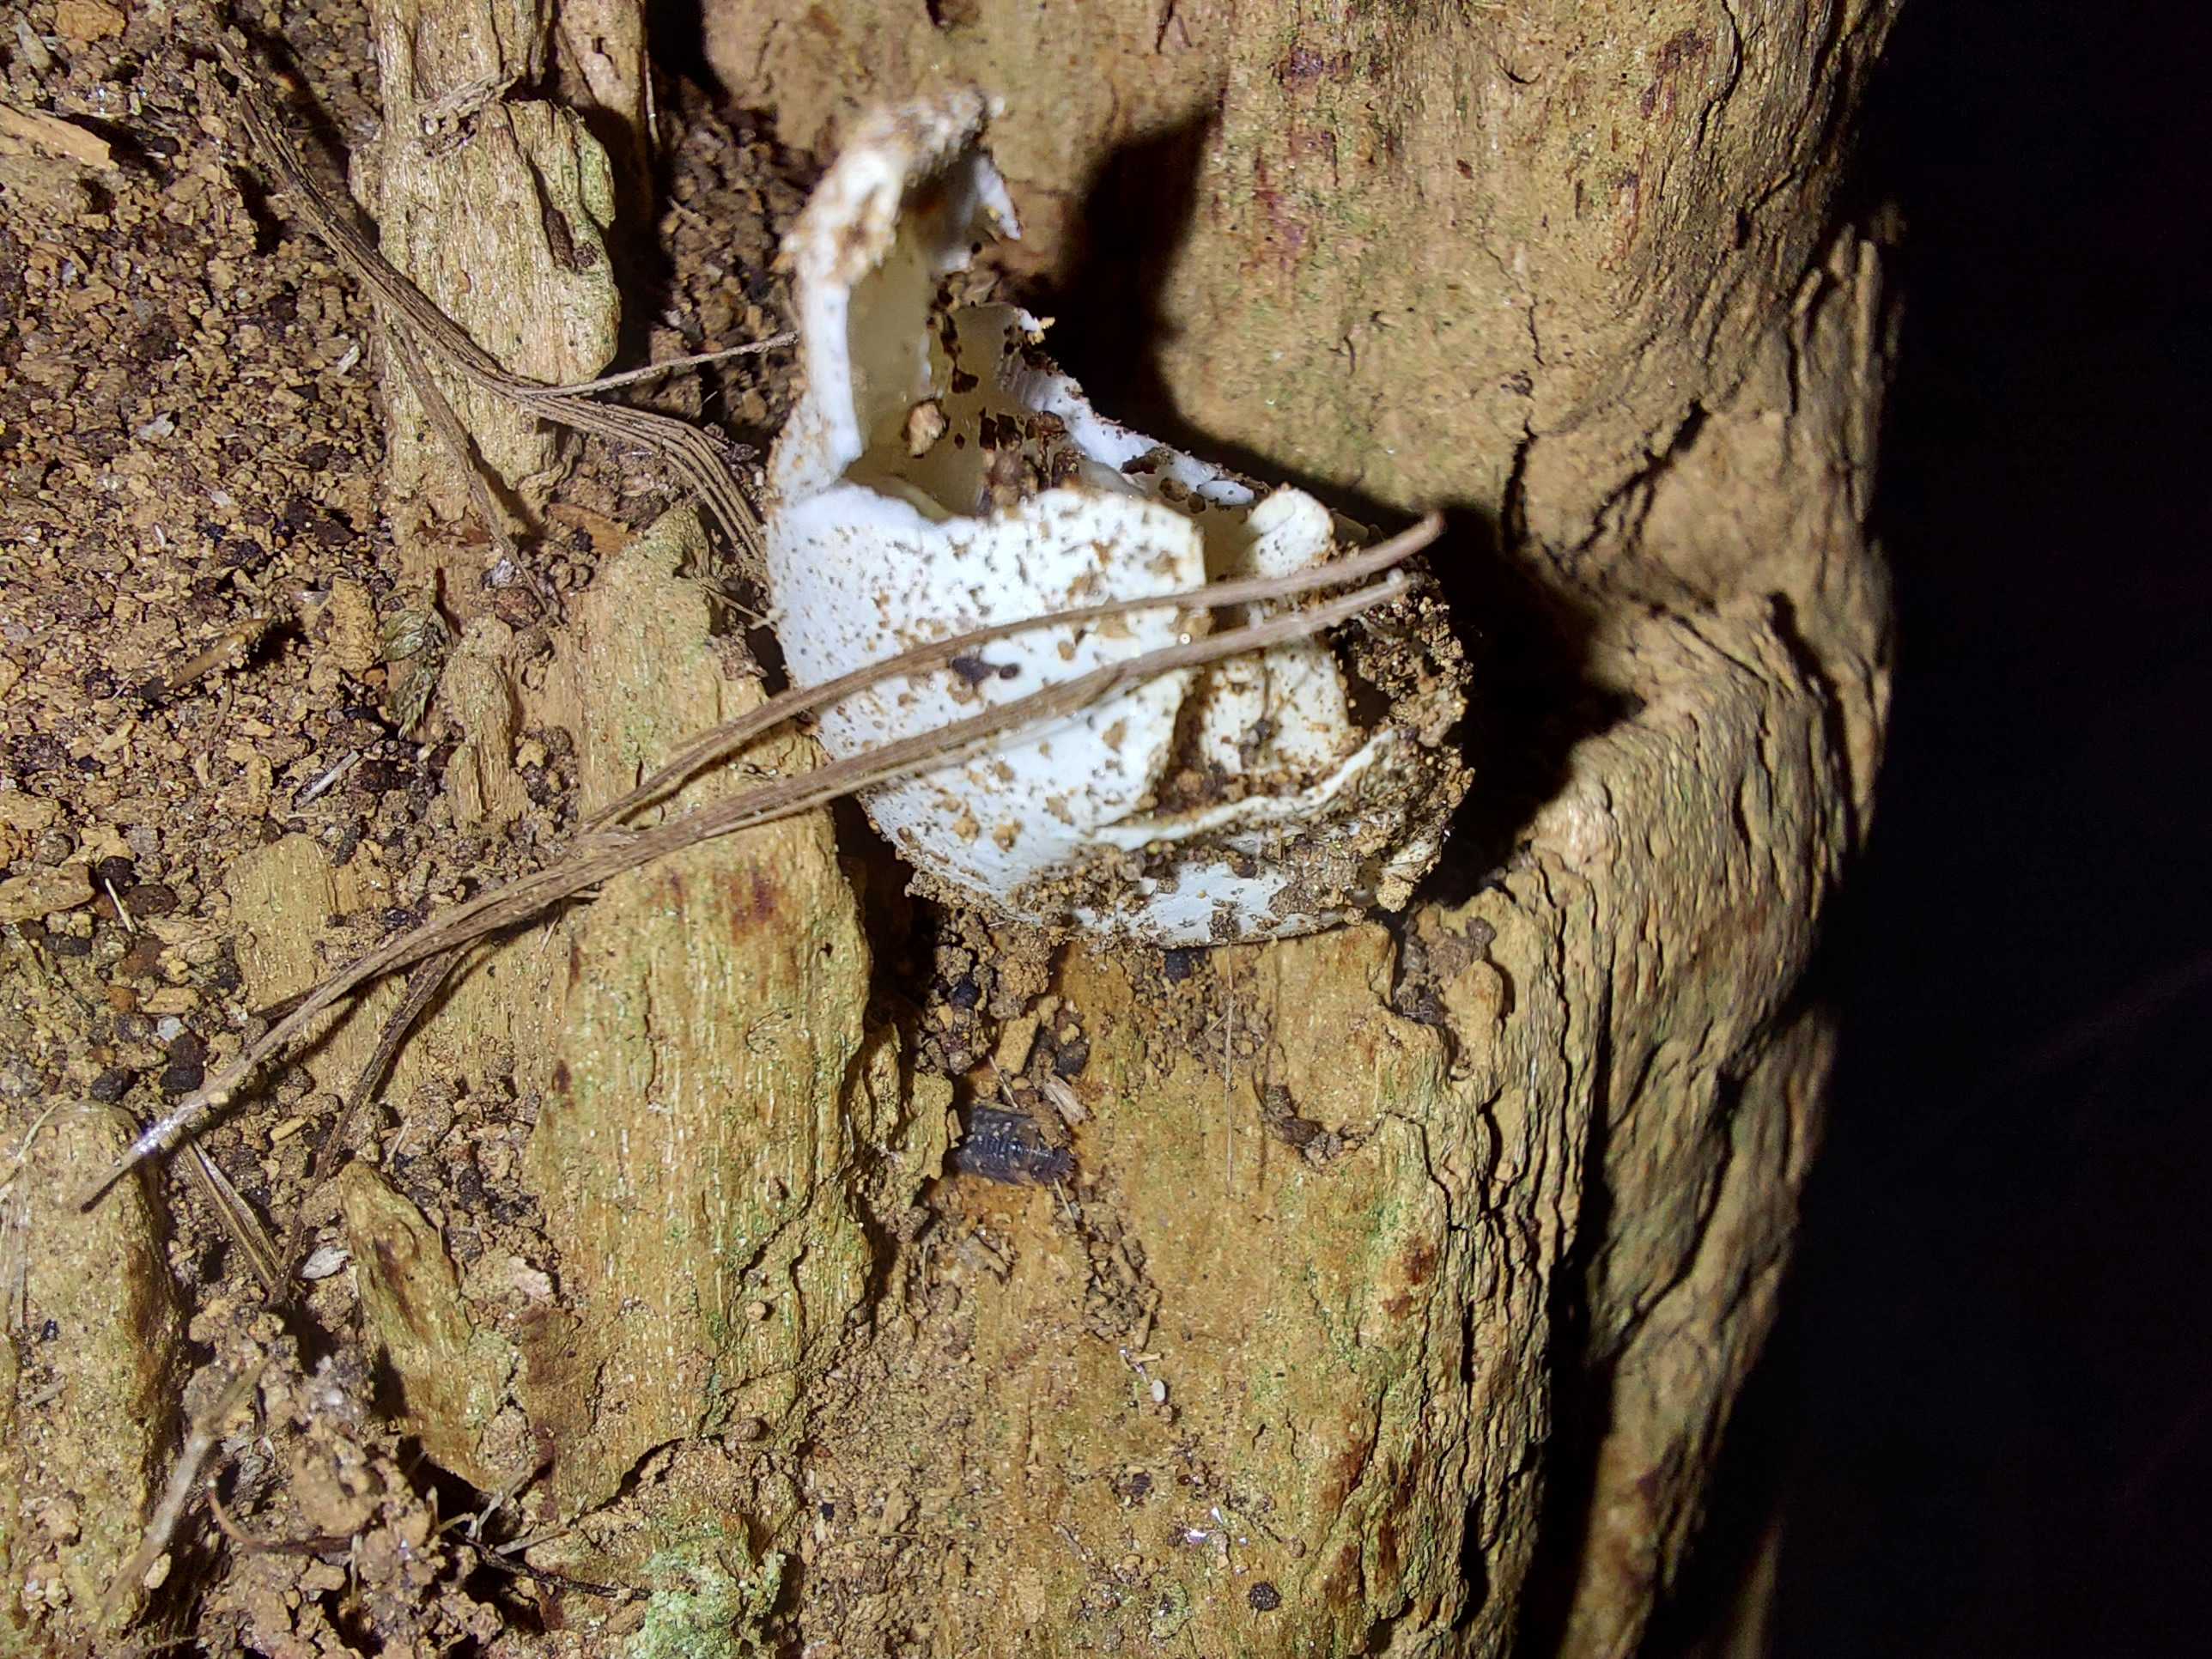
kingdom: Fungi
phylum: Basidiomycota
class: Agaricomycetes
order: Phallales
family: Phallaceae
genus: Phallus
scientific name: Phallus impudicus
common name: almindelig stinksvamp
